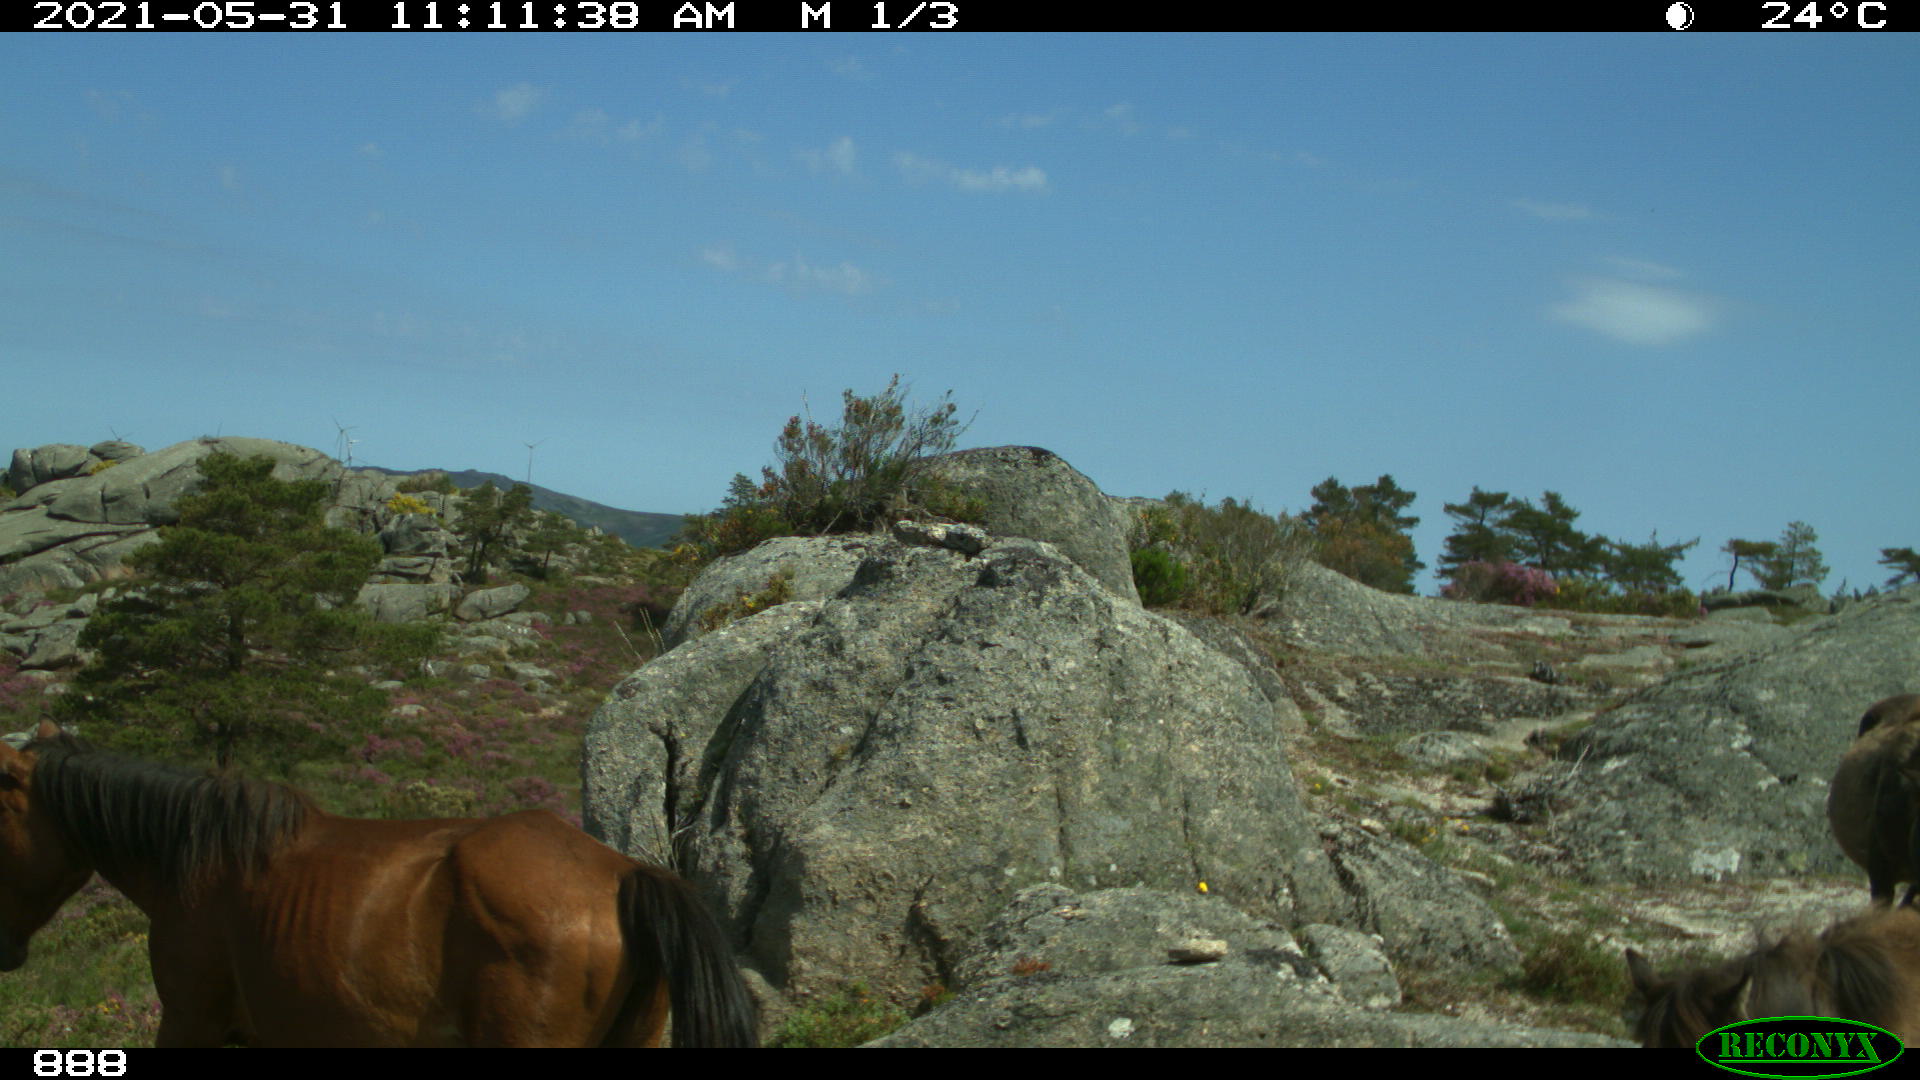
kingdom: Animalia
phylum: Chordata
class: Mammalia
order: Perissodactyla
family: Equidae
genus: Equus
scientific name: Equus caballus
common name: Horse
